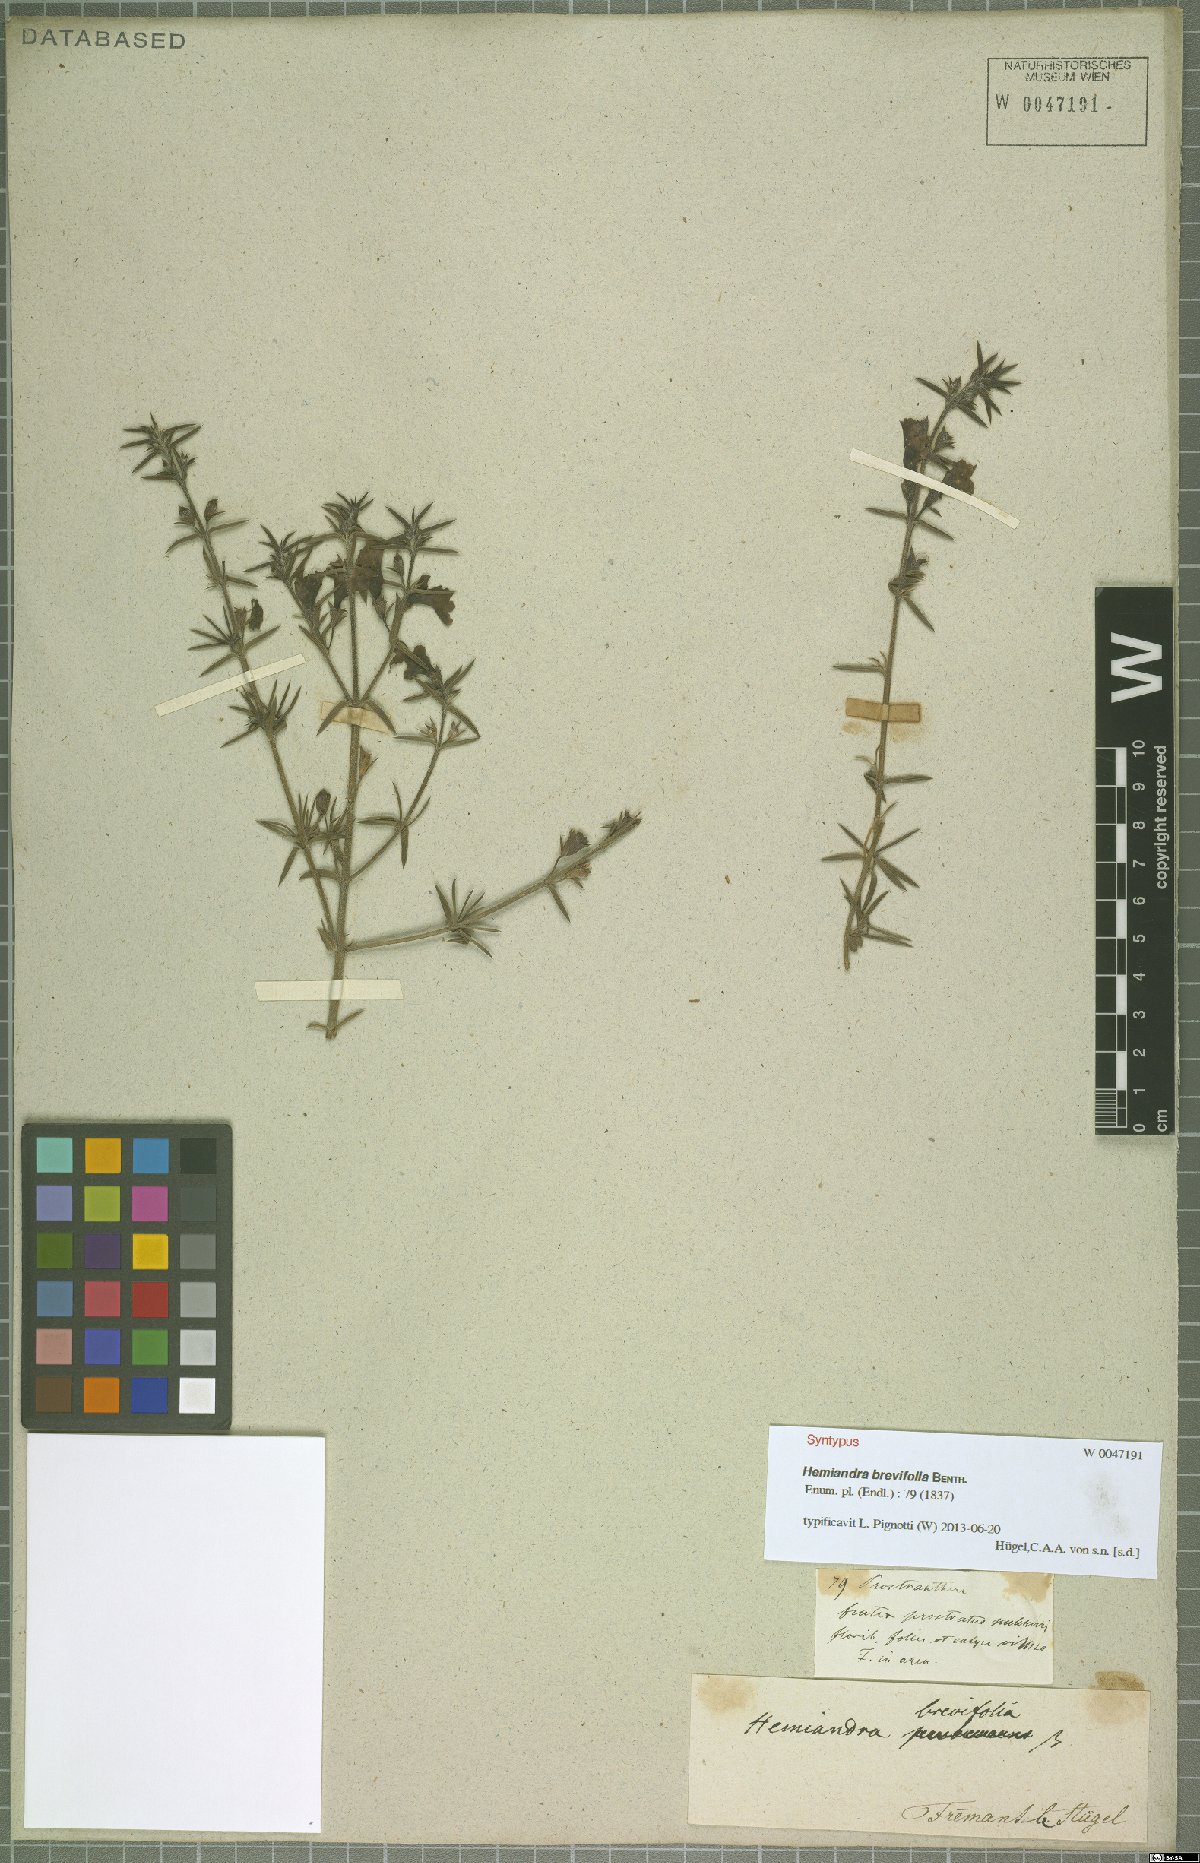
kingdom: Plantae
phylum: Tracheophyta
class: Magnoliopsida
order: Lamiales
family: Lamiaceae
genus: Hemiandra
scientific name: Hemiandra pungens
